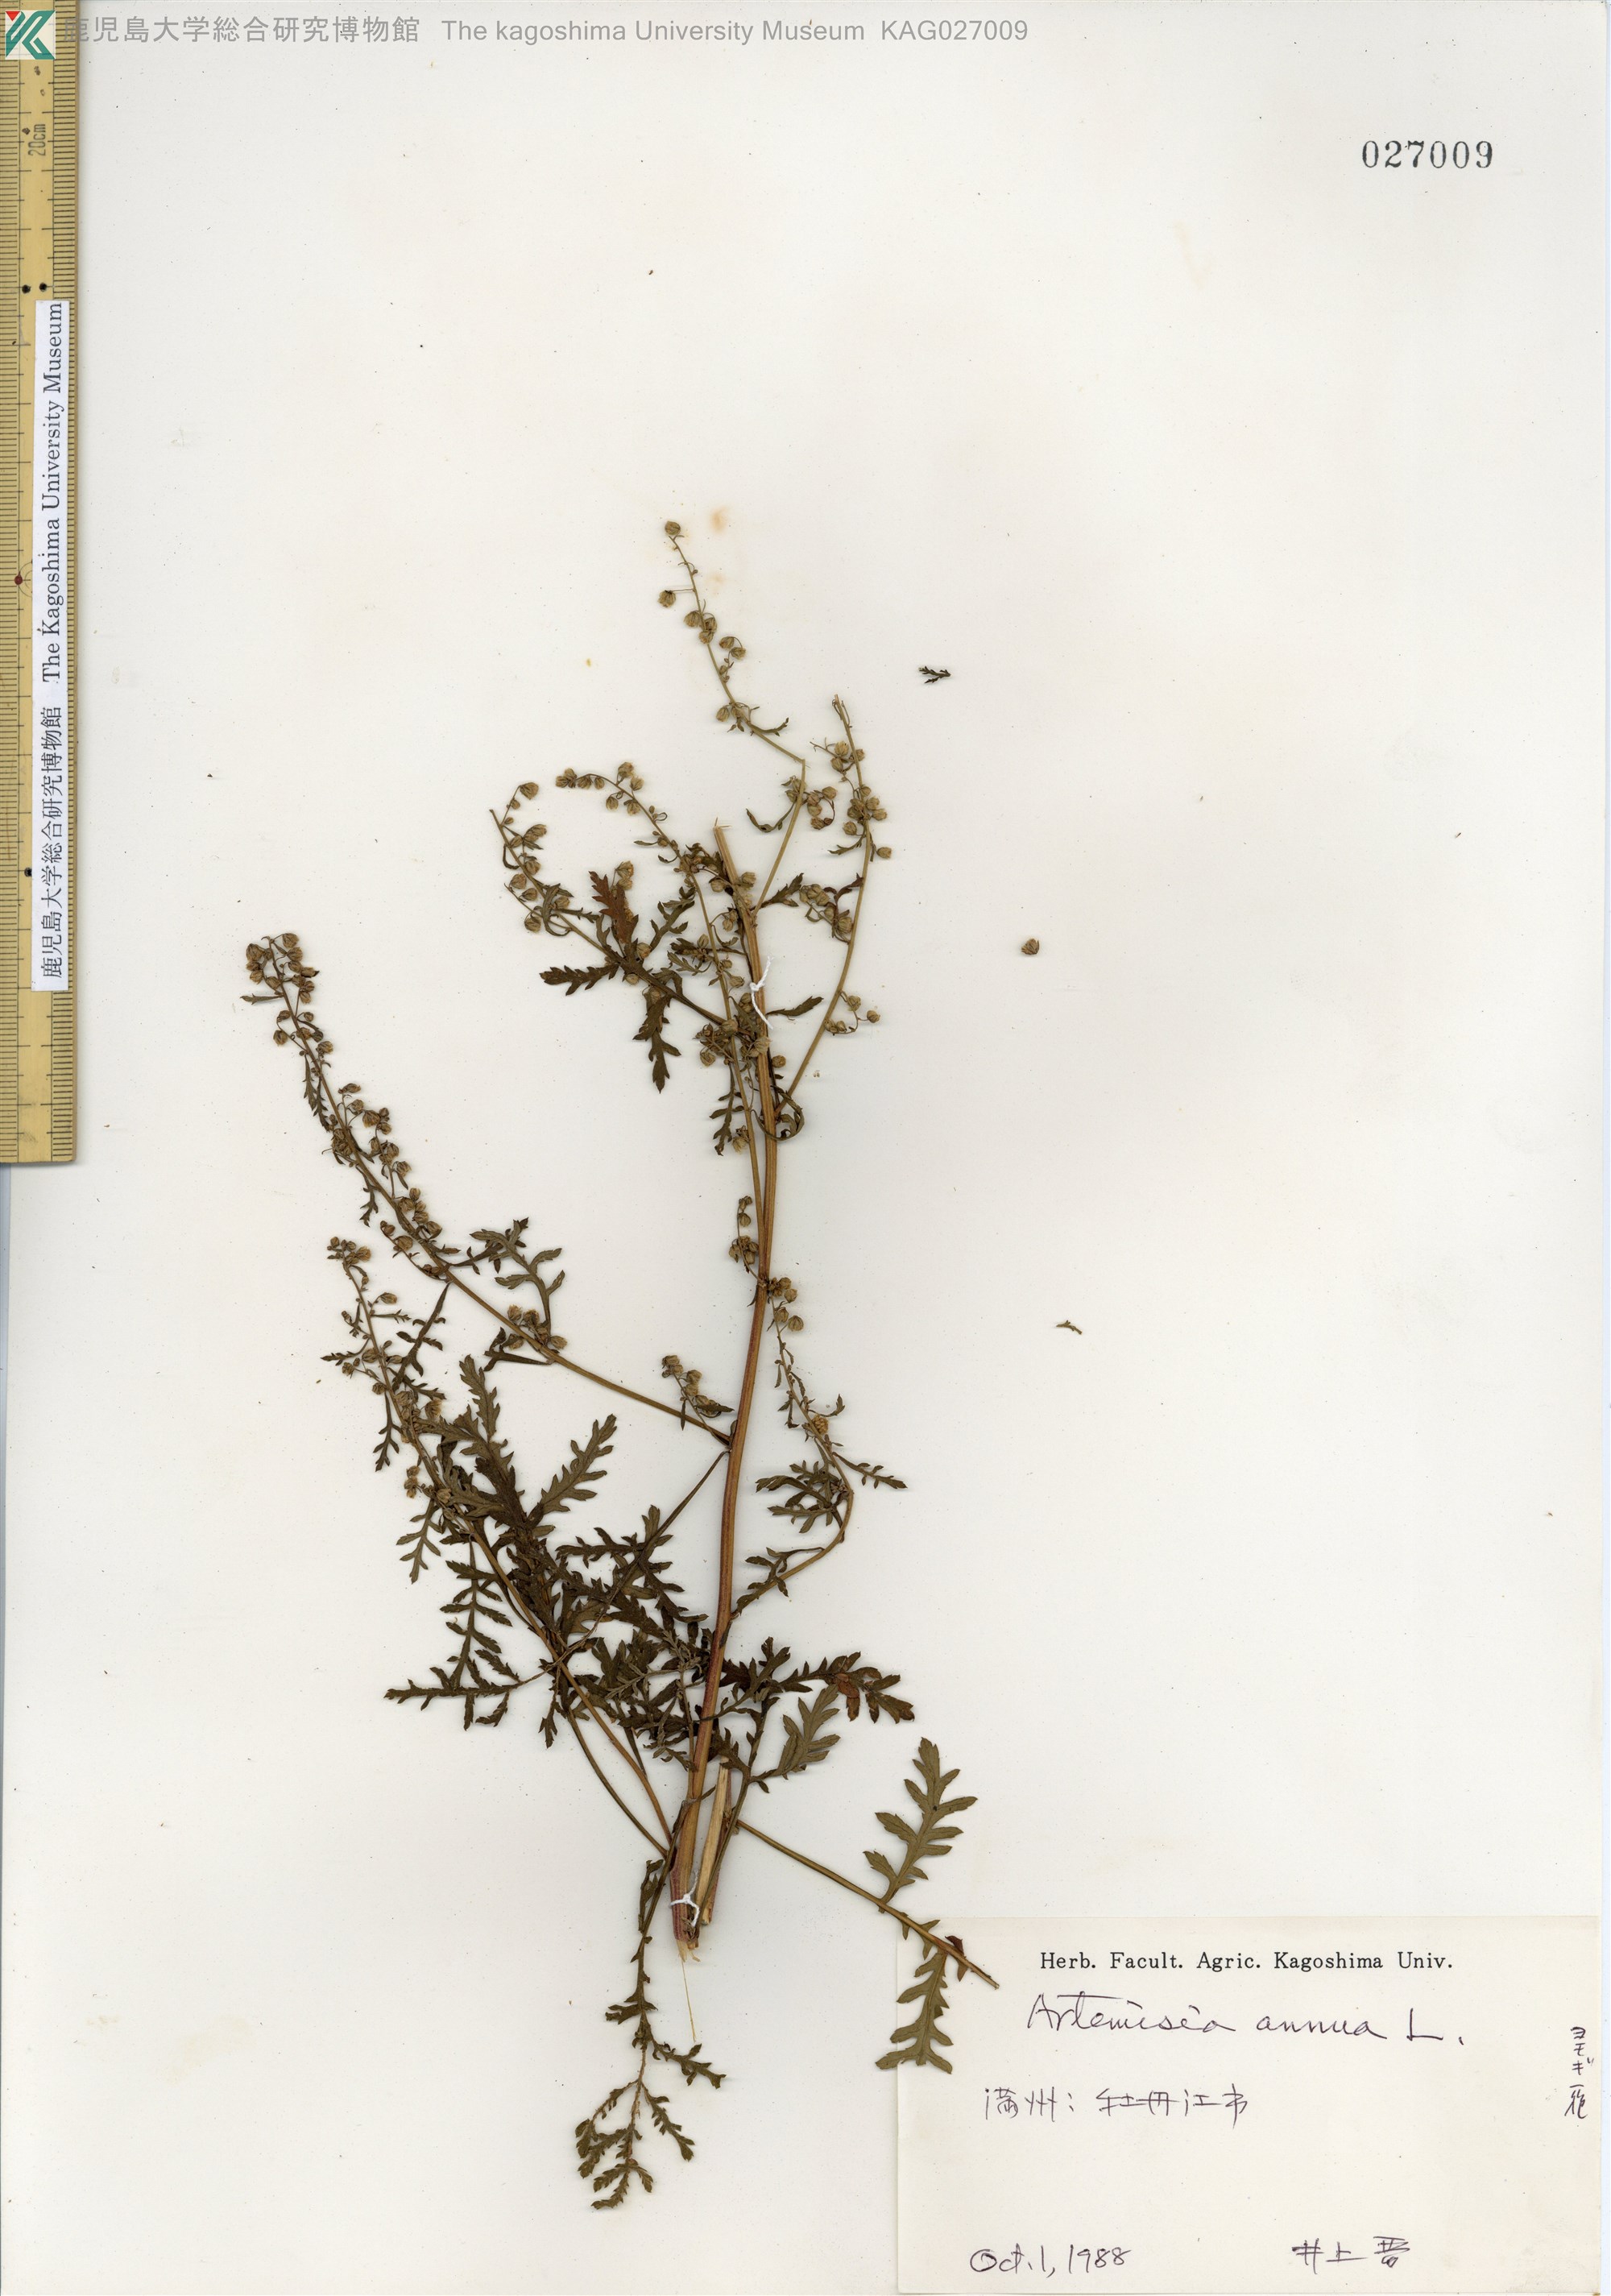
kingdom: Plantae
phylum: Tracheophyta
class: Magnoliopsida
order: Asterales
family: Asteraceae
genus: Artemisia
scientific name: Artemisia annua
